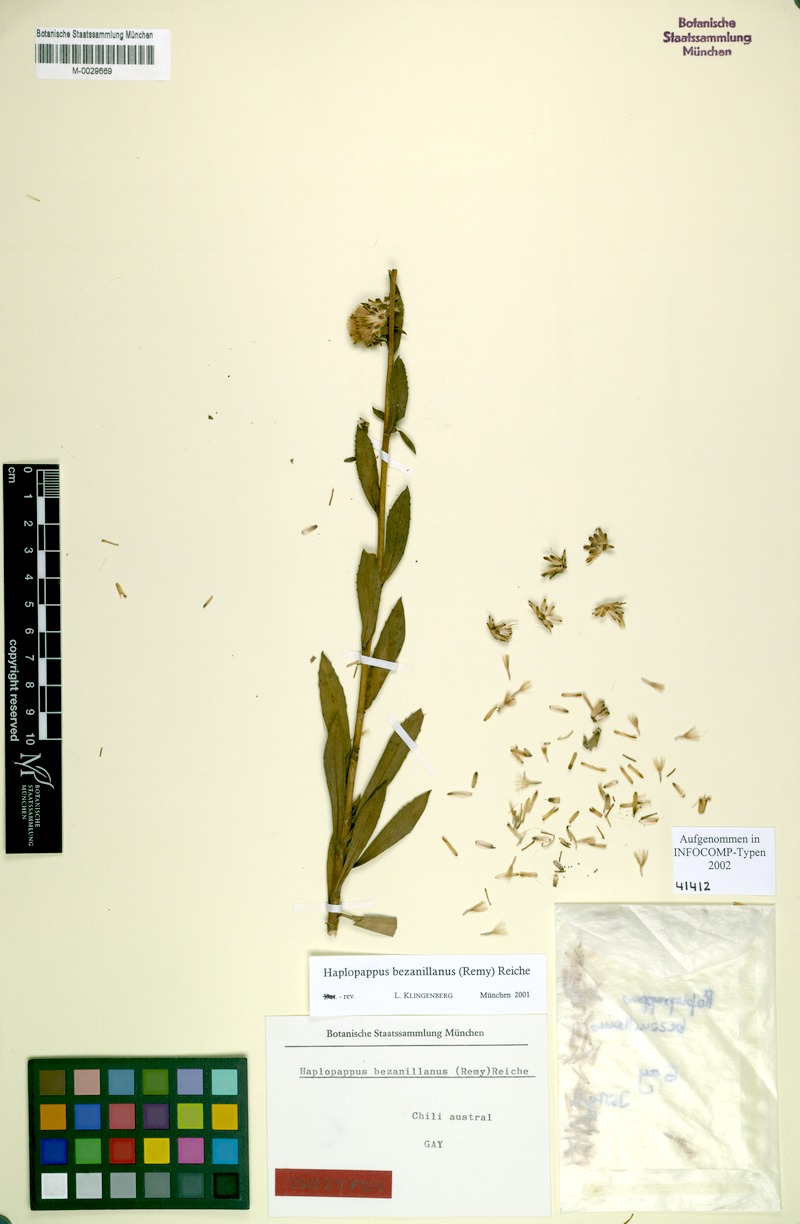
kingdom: Plantae
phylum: Tracheophyta
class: Magnoliopsida
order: Asterales
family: Asteraceae
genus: Haplopappus
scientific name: Haplopappus bezanillanus
